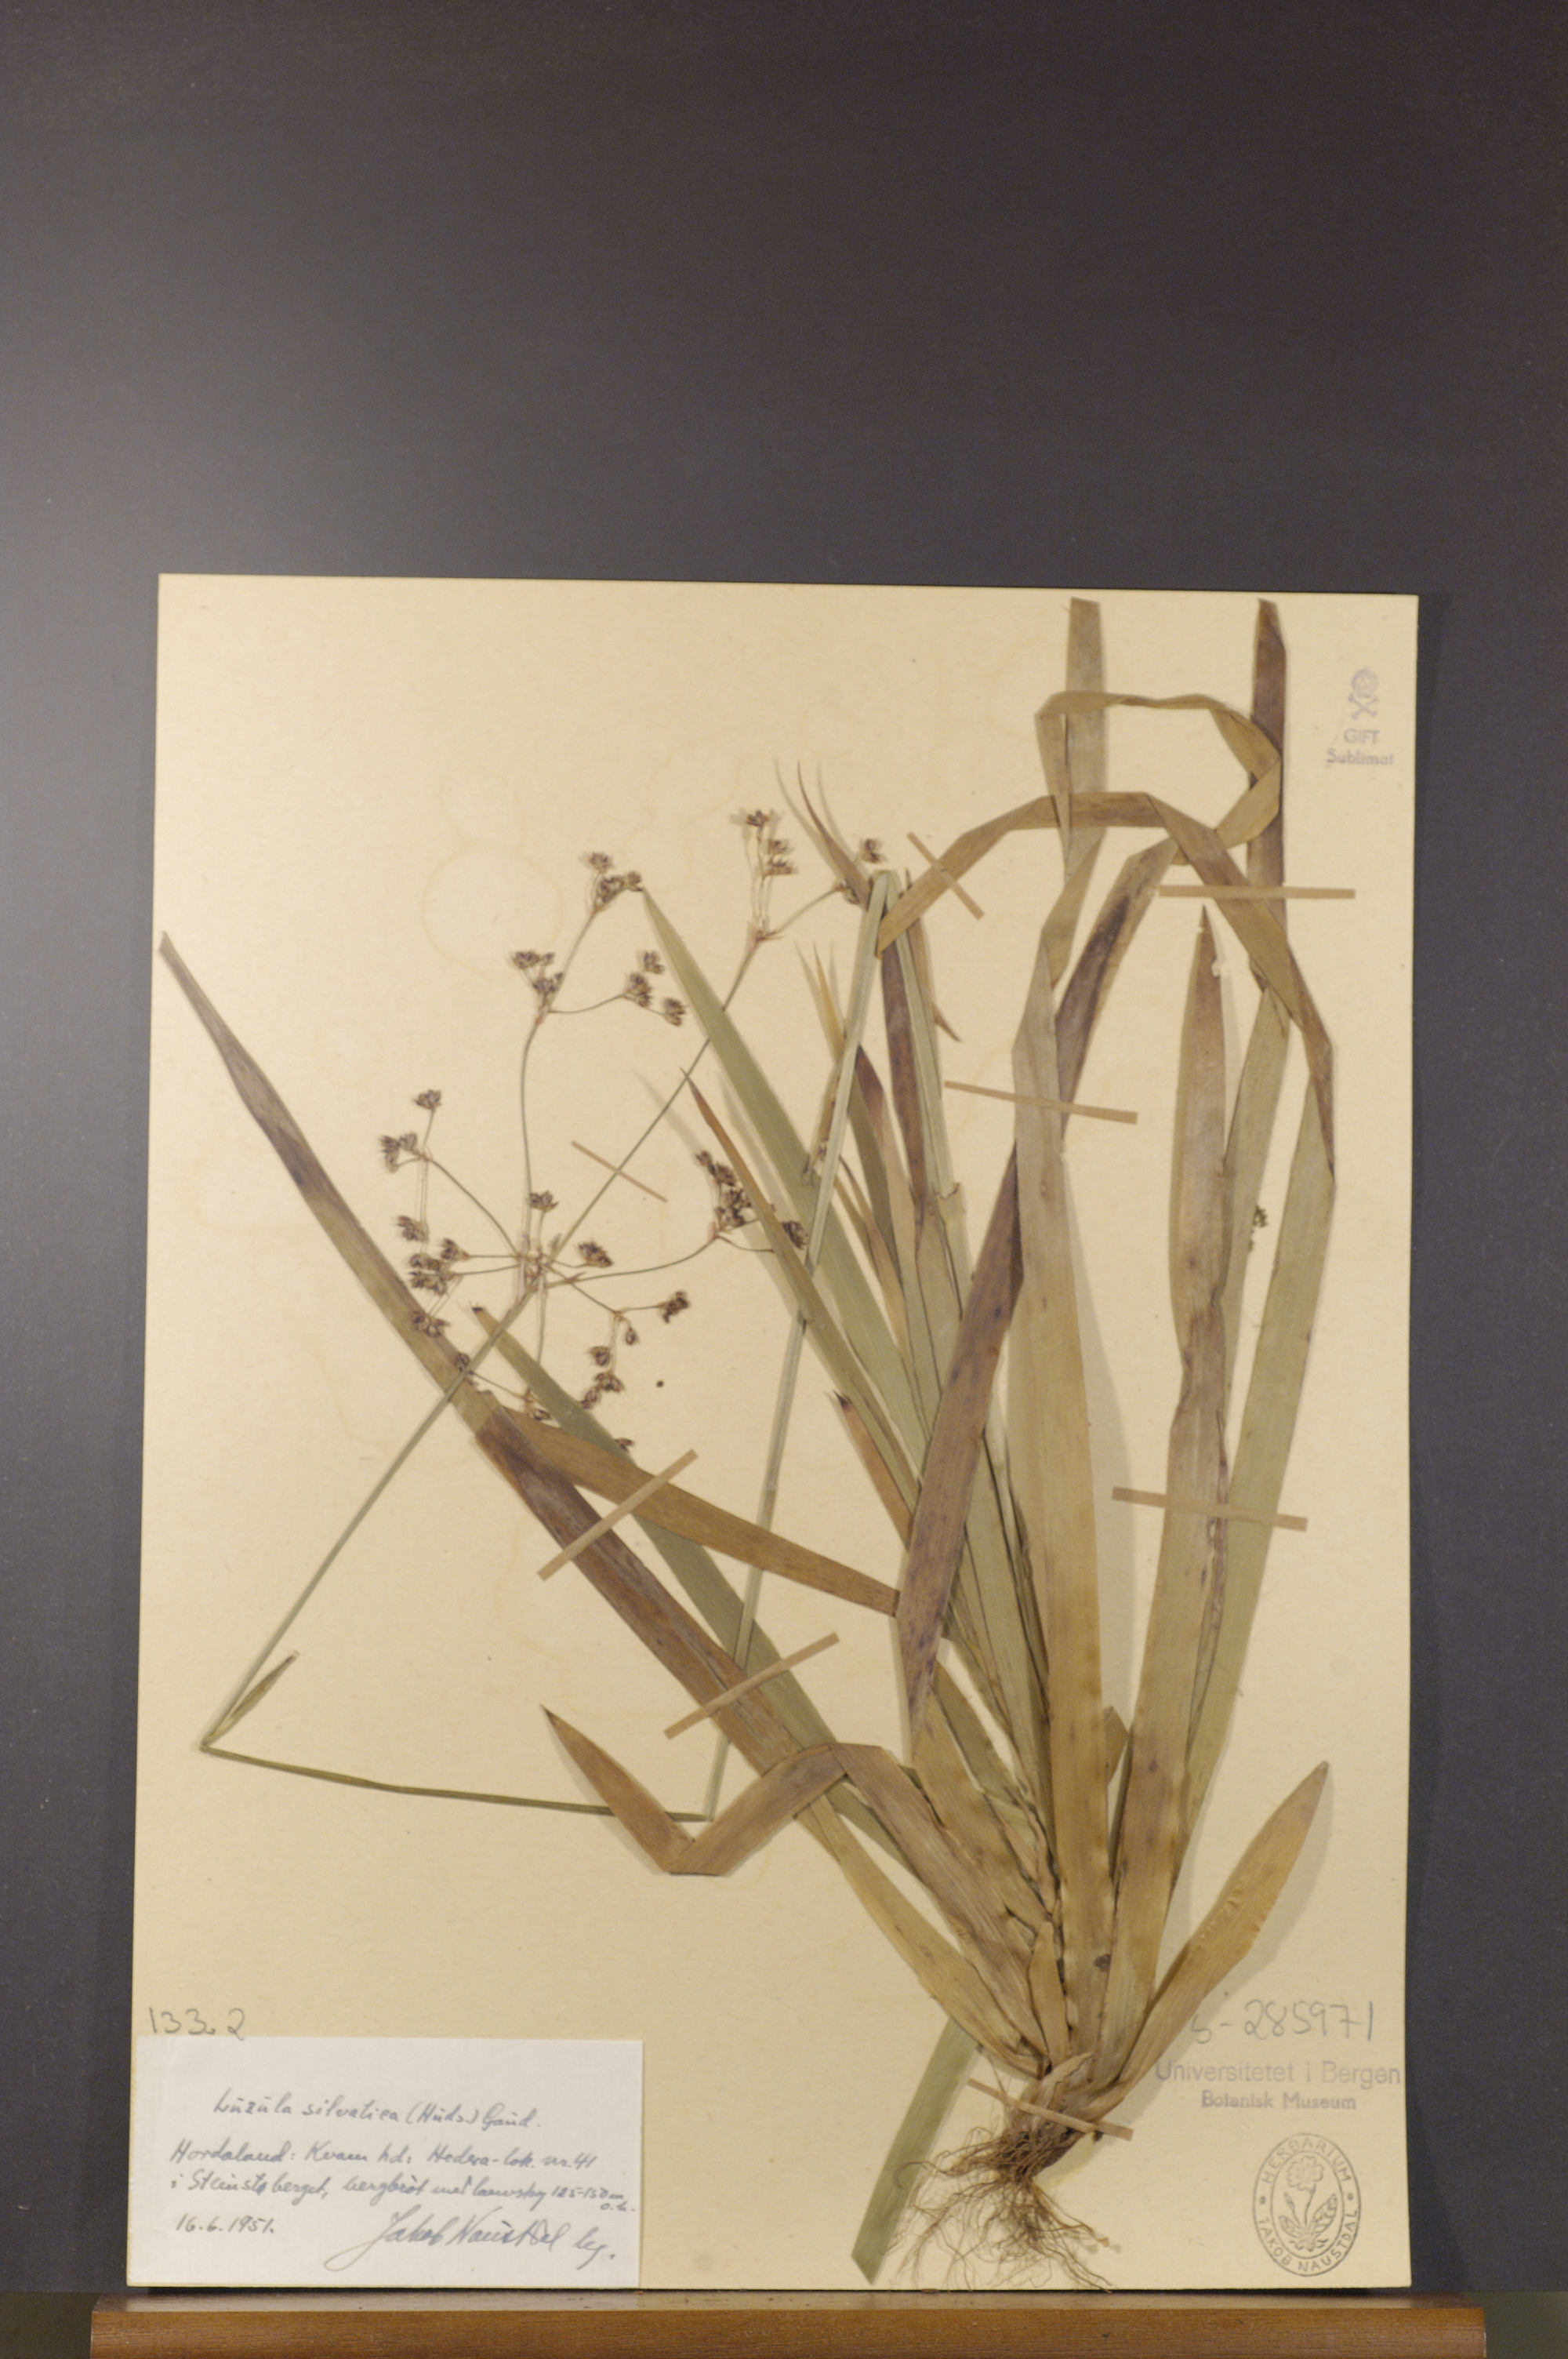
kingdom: Plantae
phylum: Tracheophyta
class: Liliopsida
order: Poales
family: Juncaceae
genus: Luzula
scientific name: Luzula sylvatica
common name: Great wood-rush
